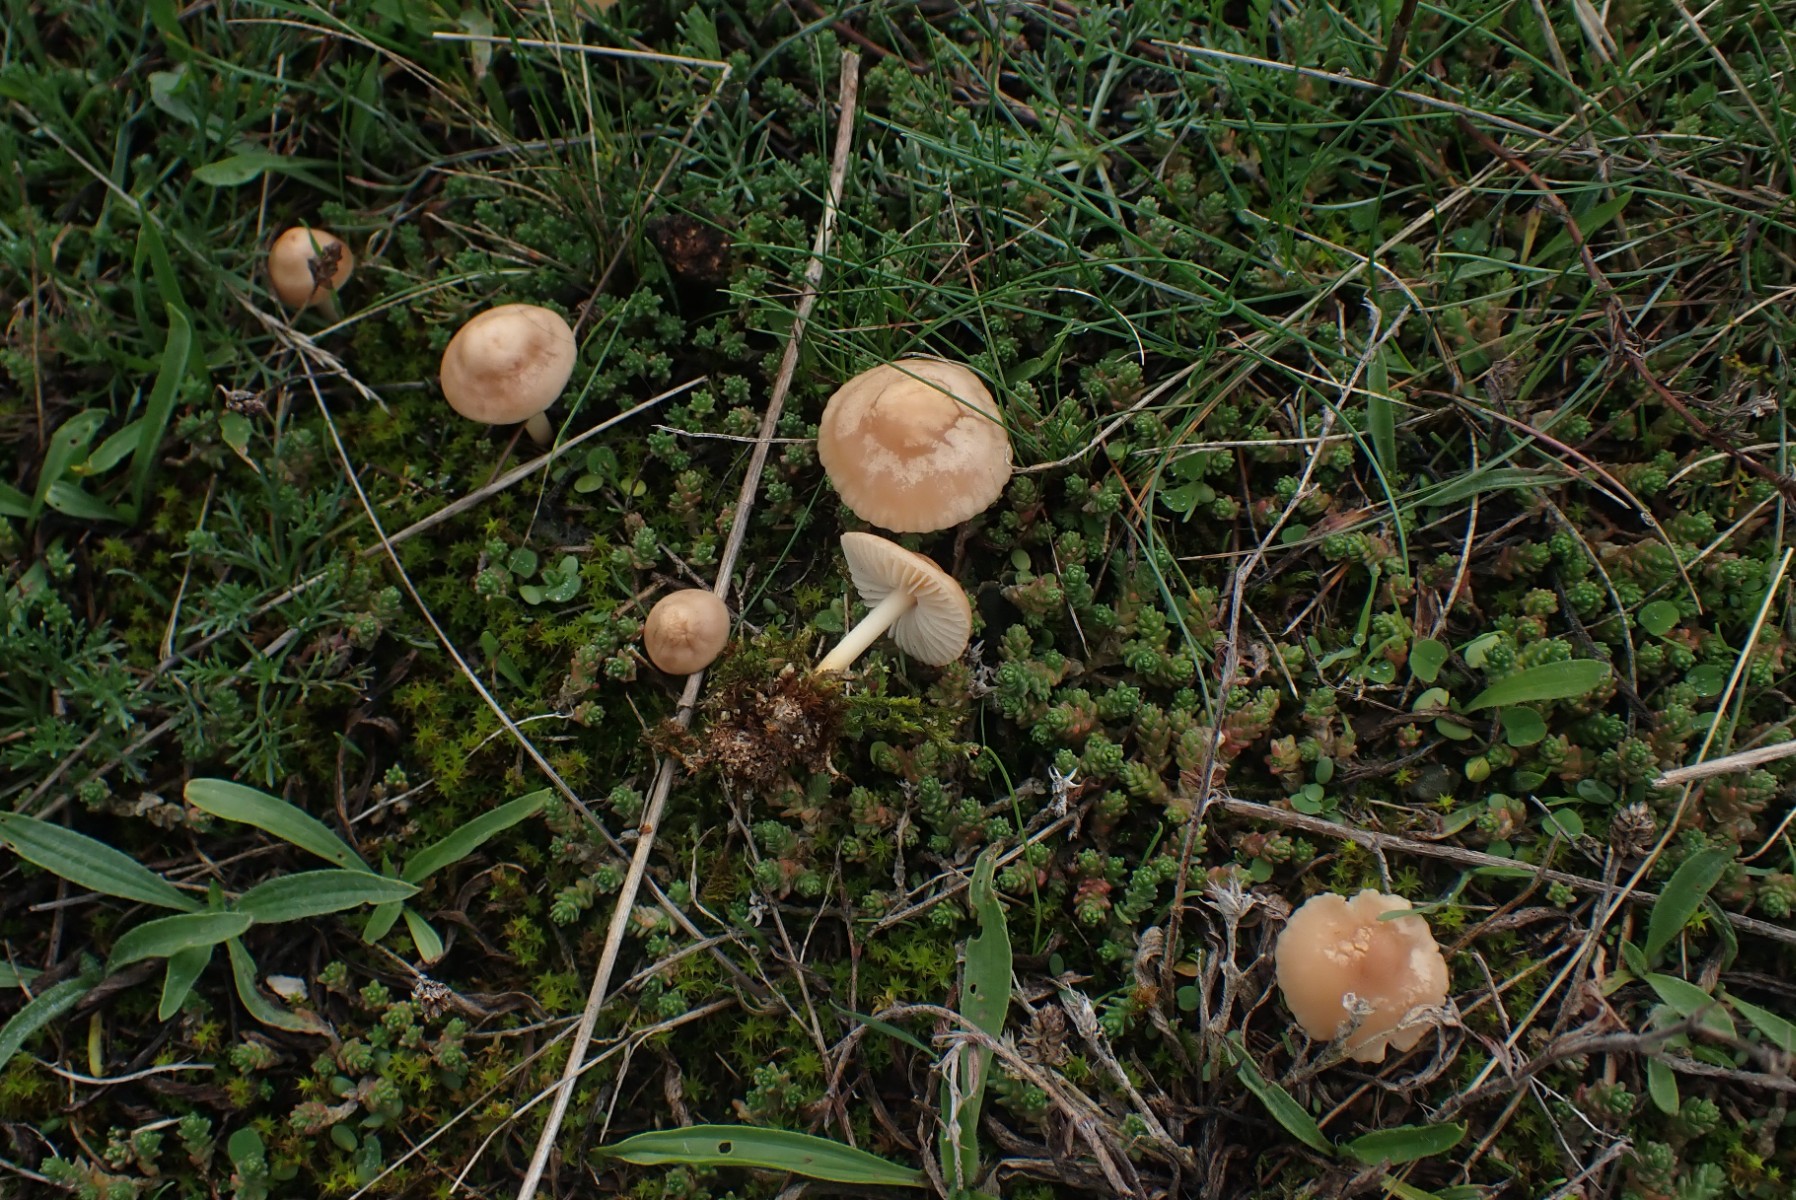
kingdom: Fungi
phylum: Basidiomycota
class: Agaricomycetes
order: Agaricales
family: Marasmiaceae
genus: Marasmius
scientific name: Marasmius oreades
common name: elledans-bruskhat
